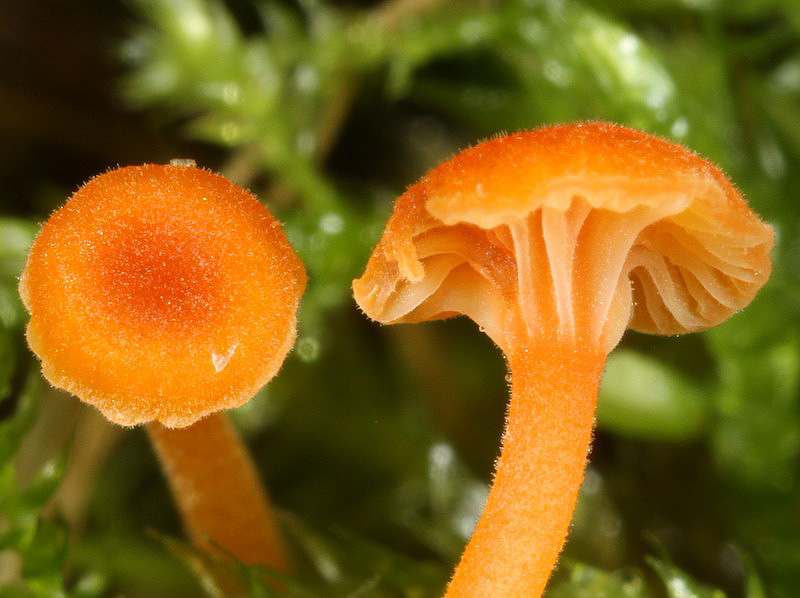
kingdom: Fungi
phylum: Basidiomycota
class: Agaricomycetes
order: Hymenochaetales
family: Rickenellaceae
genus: Rickenella
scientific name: Rickenella fibula
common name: orange mosnavlehat
